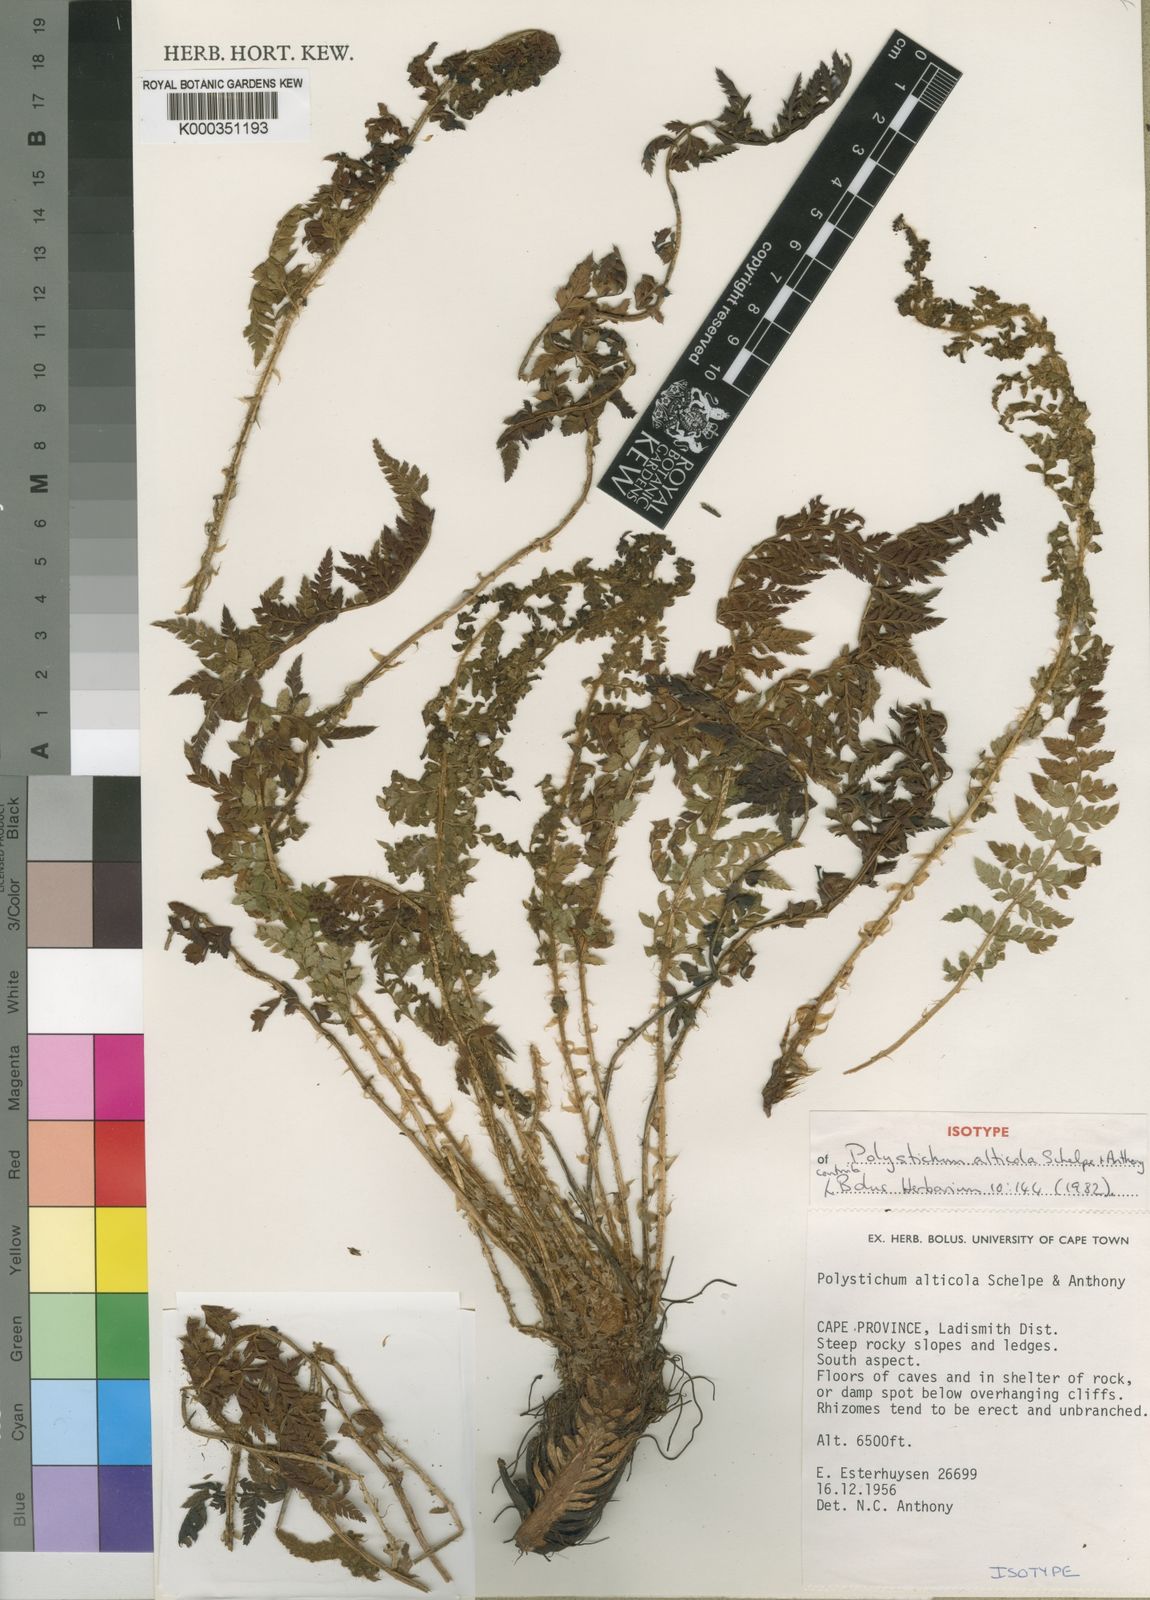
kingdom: Plantae
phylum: Tracheophyta
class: Polypodiopsida
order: Polypodiales
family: Dryopteridaceae
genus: Polystichum
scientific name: Polystichum sinense
